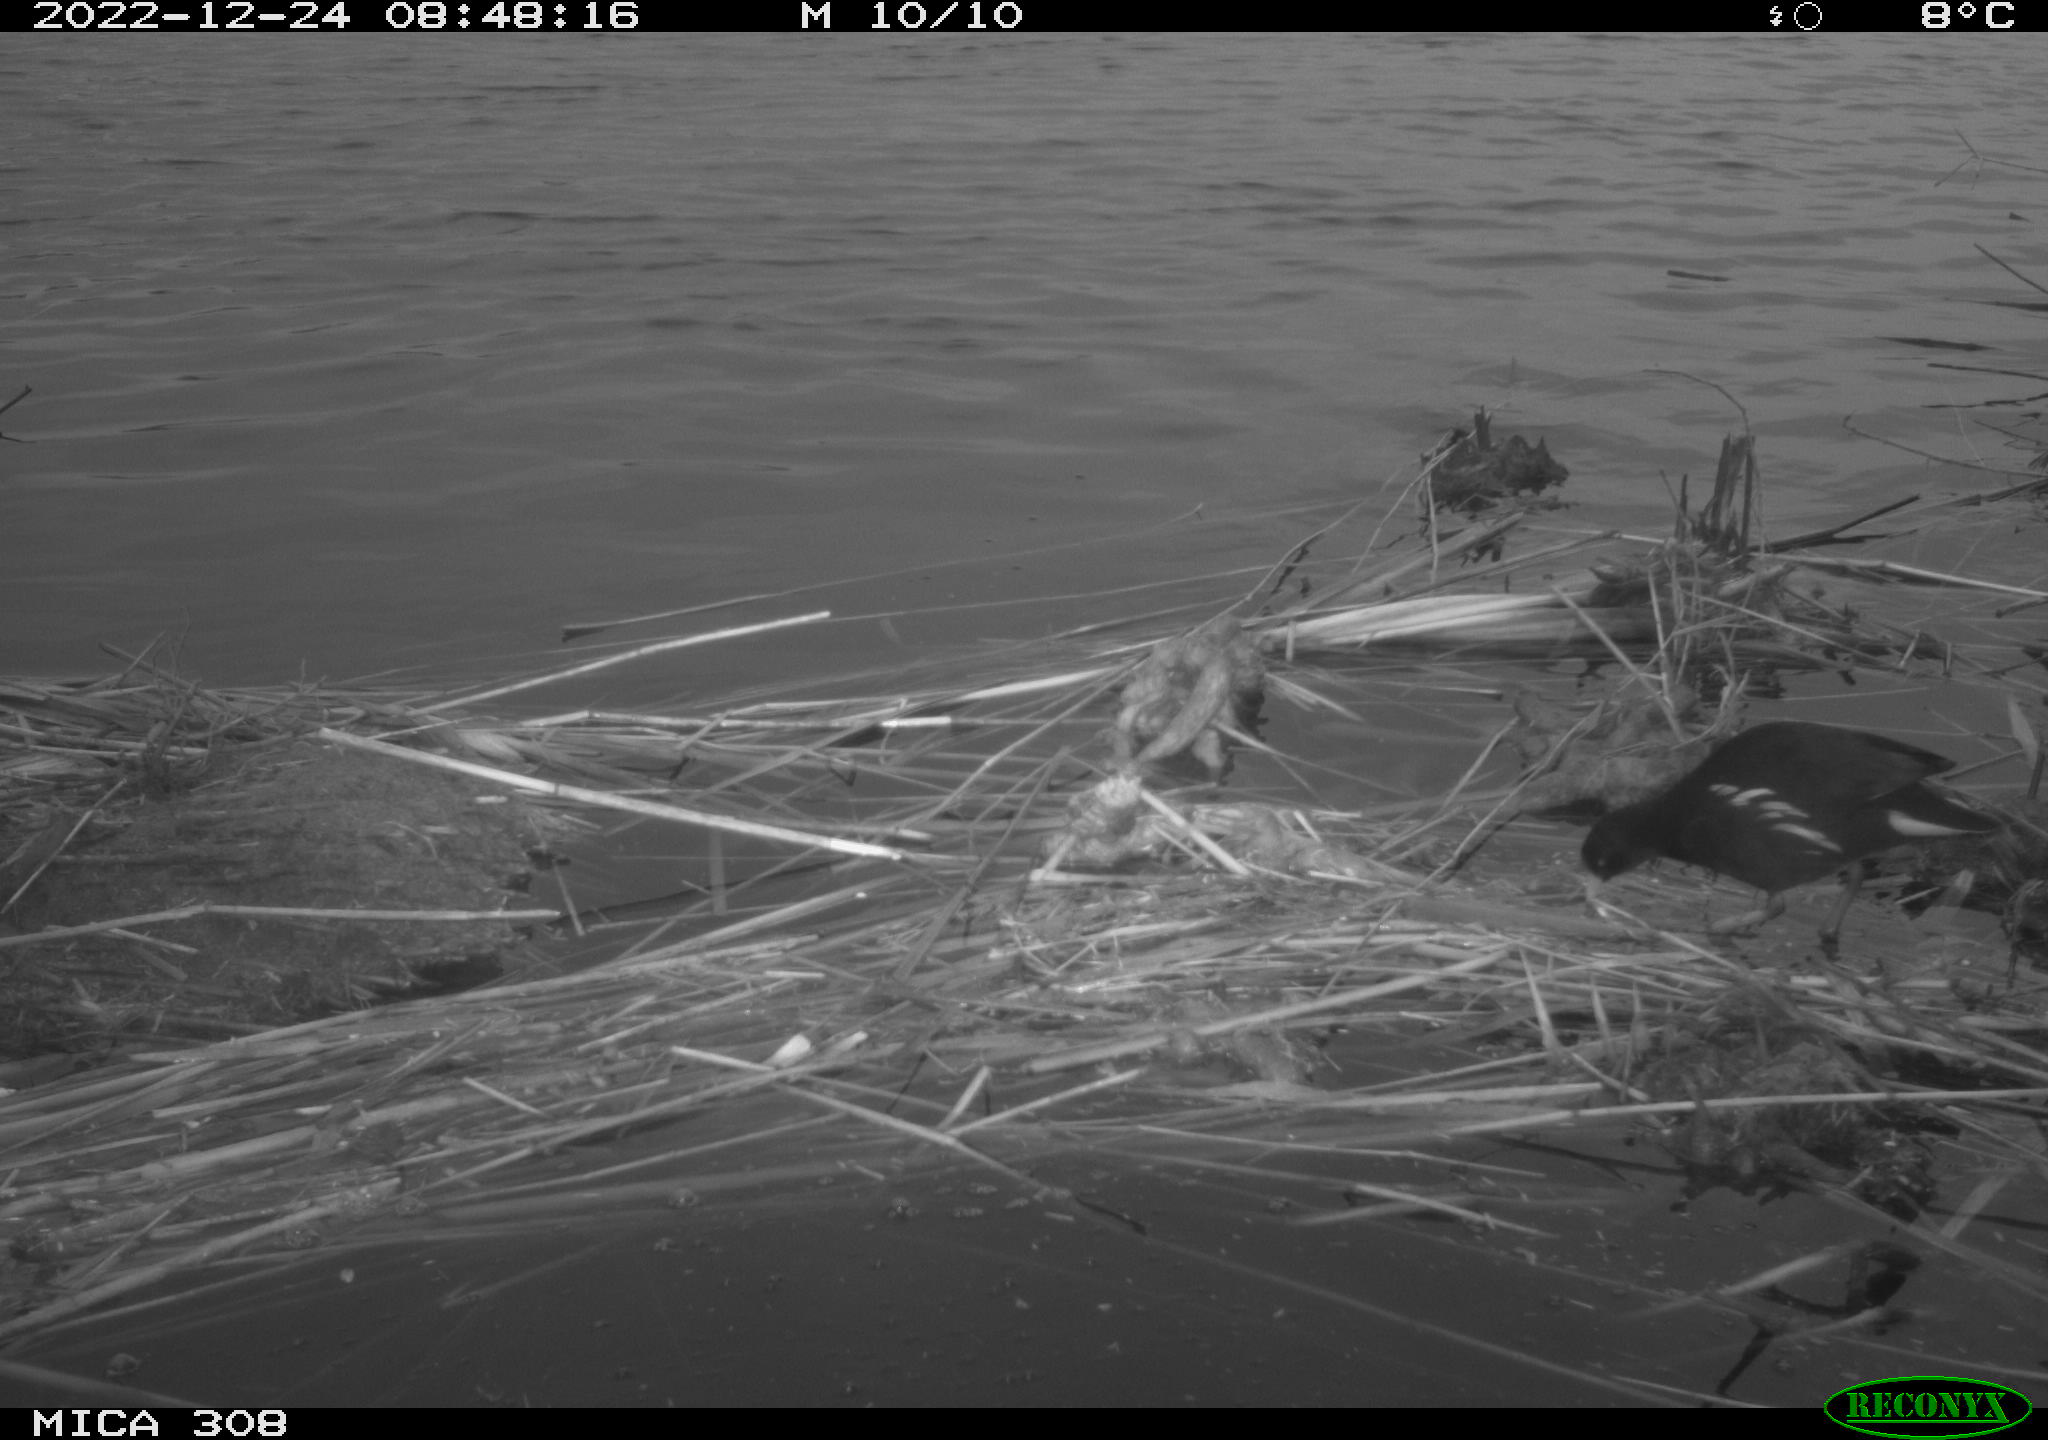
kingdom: Animalia
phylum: Chordata
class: Aves
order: Gruiformes
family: Rallidae
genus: Gallinula
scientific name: Gallinula chloropus
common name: Common moorhen
